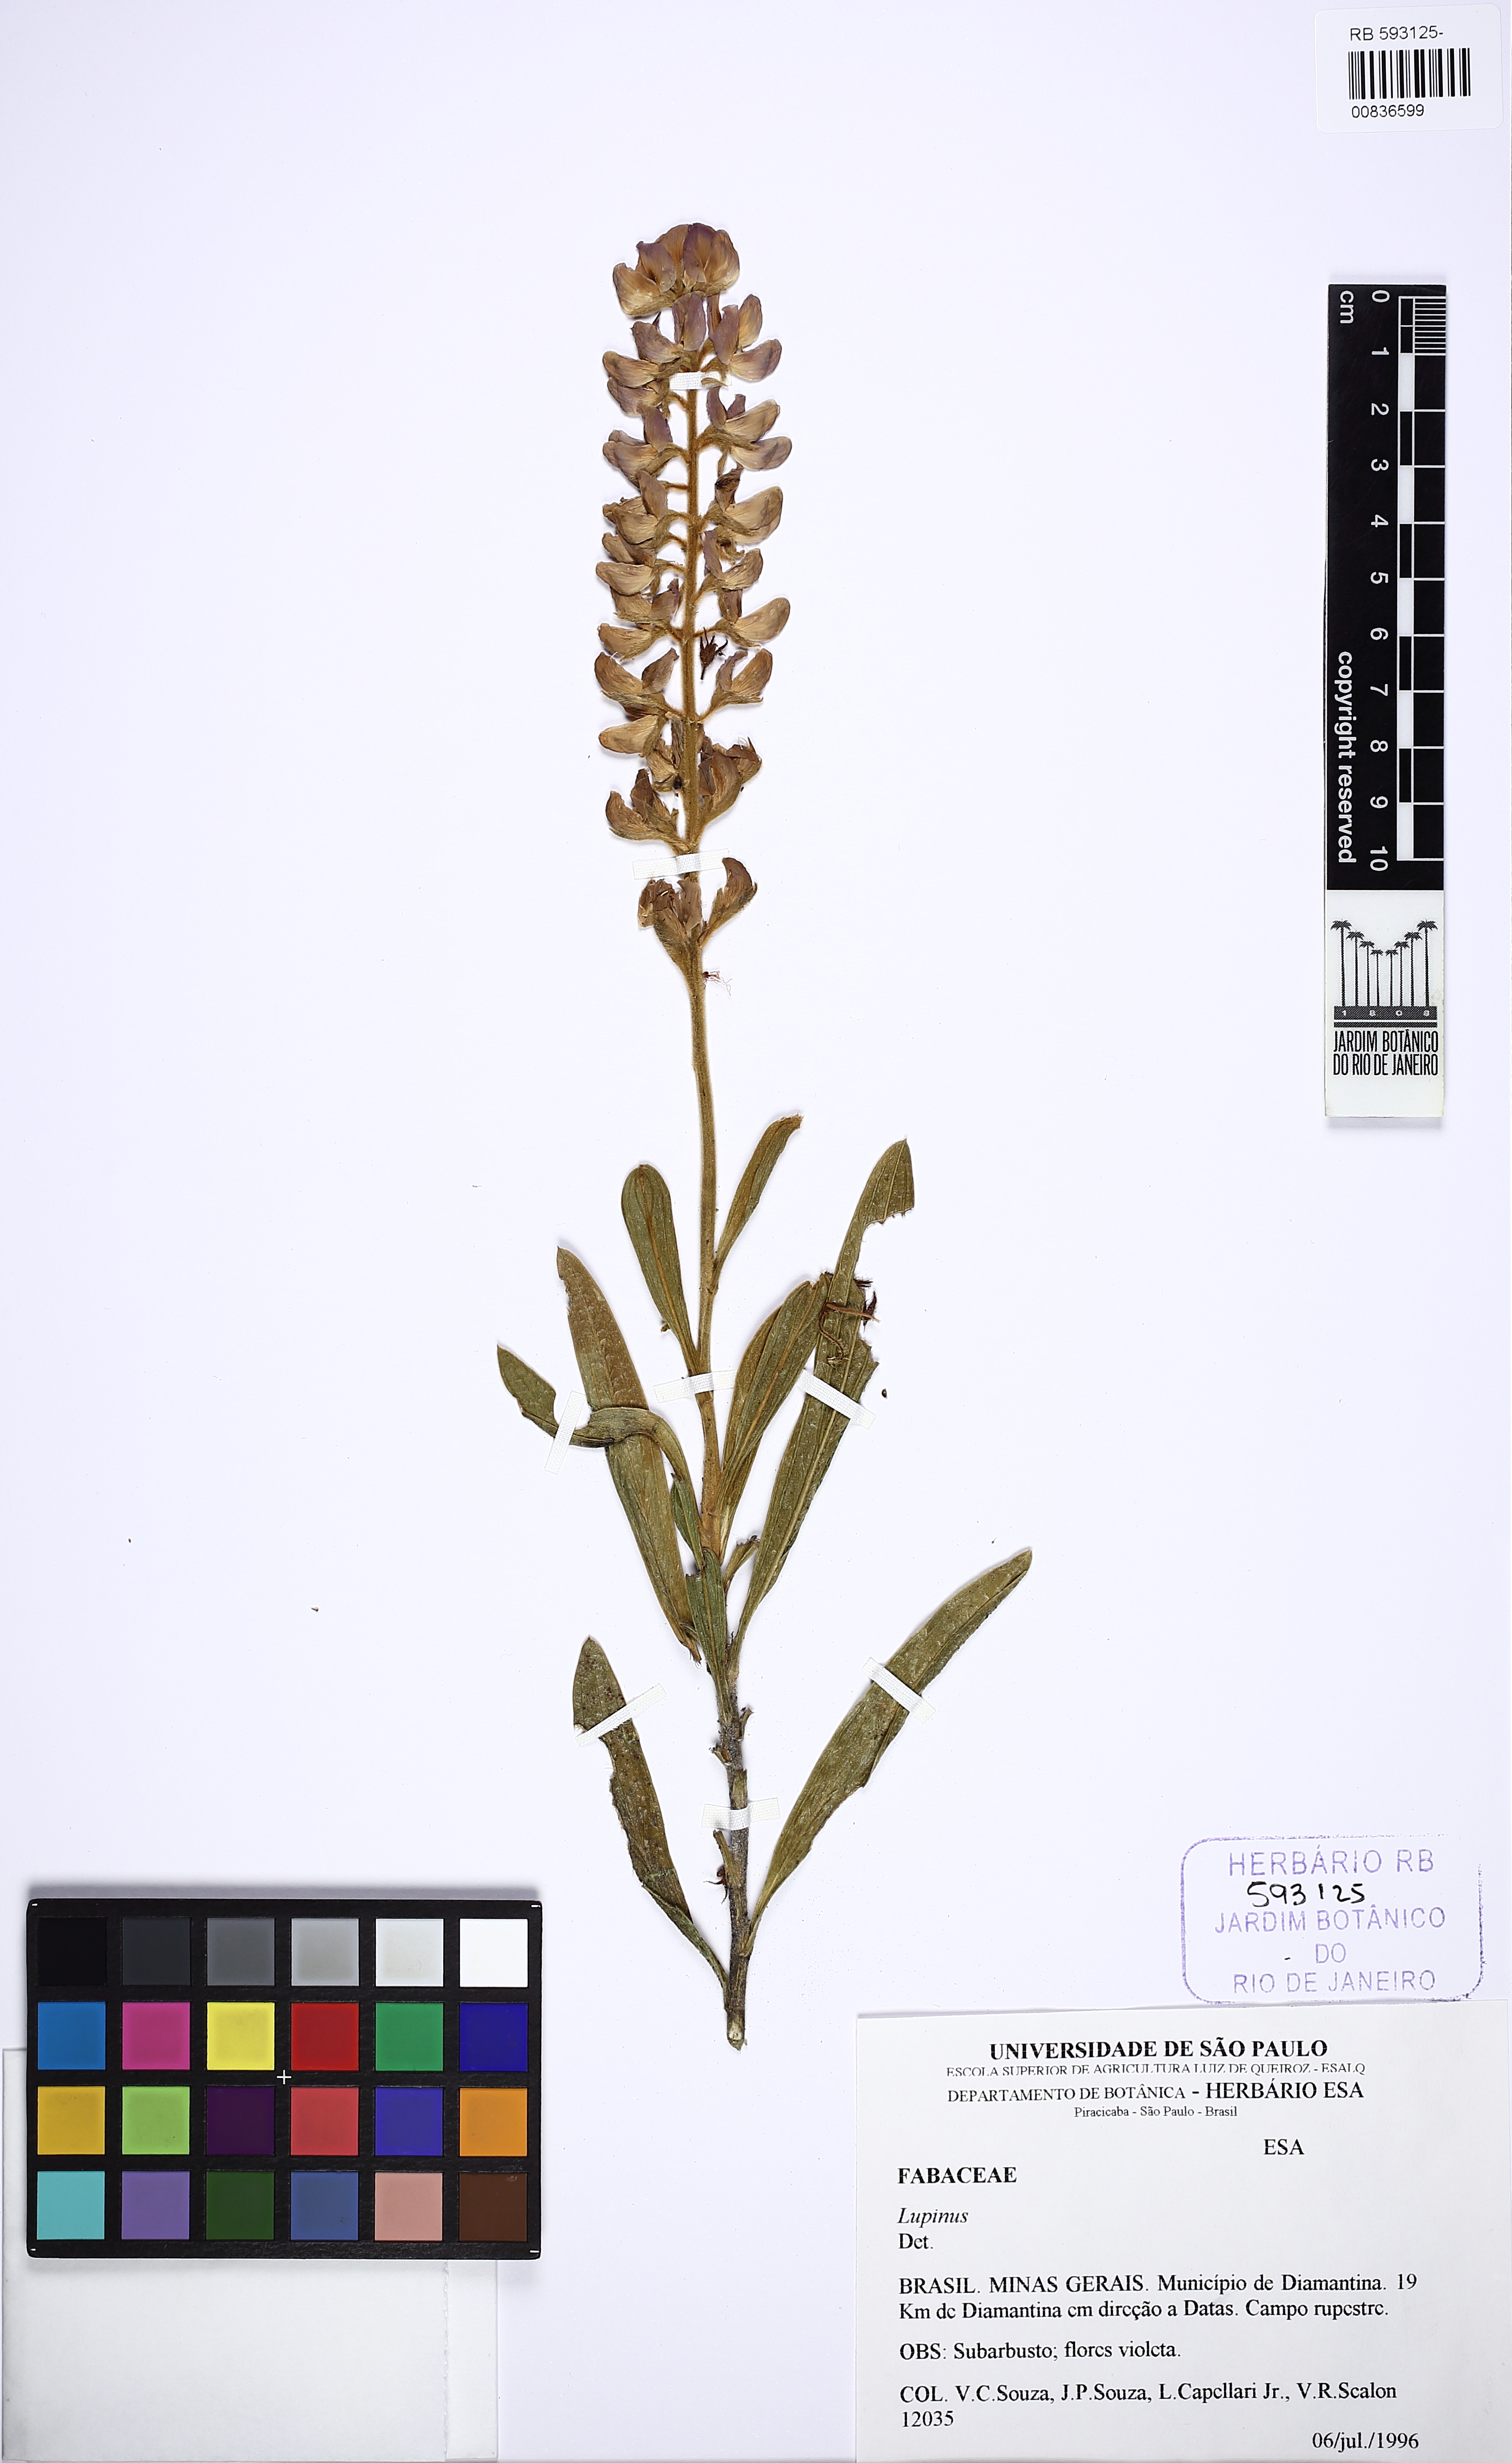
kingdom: Plantae
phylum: Tracheophyta
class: Magnoliopsida
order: Fabales
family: Fabaceae
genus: Lupinus
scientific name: Lupinus
